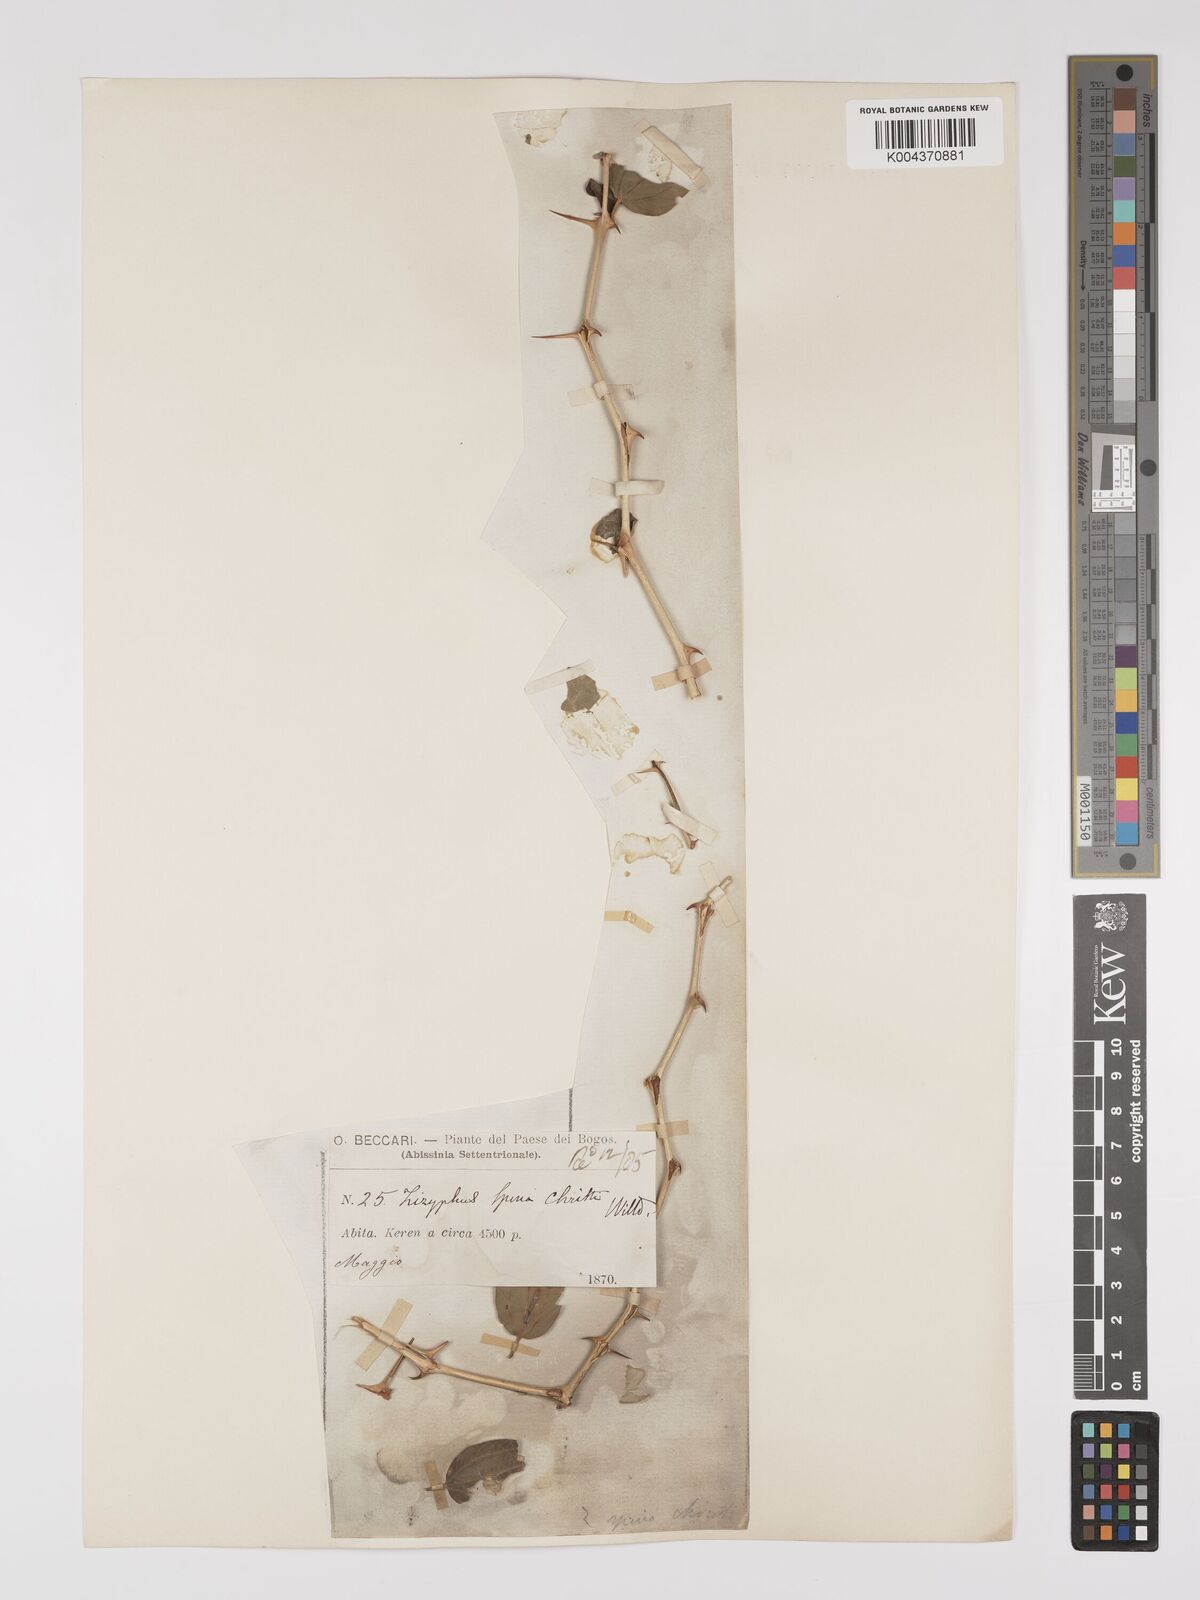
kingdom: Plantae
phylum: Tracheophyta
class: Magnoliopsida
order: Rosales
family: Rhamnaceae
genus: Ziziphus
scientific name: Ziziphus spina-christi
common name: Syrian christ-thorn
